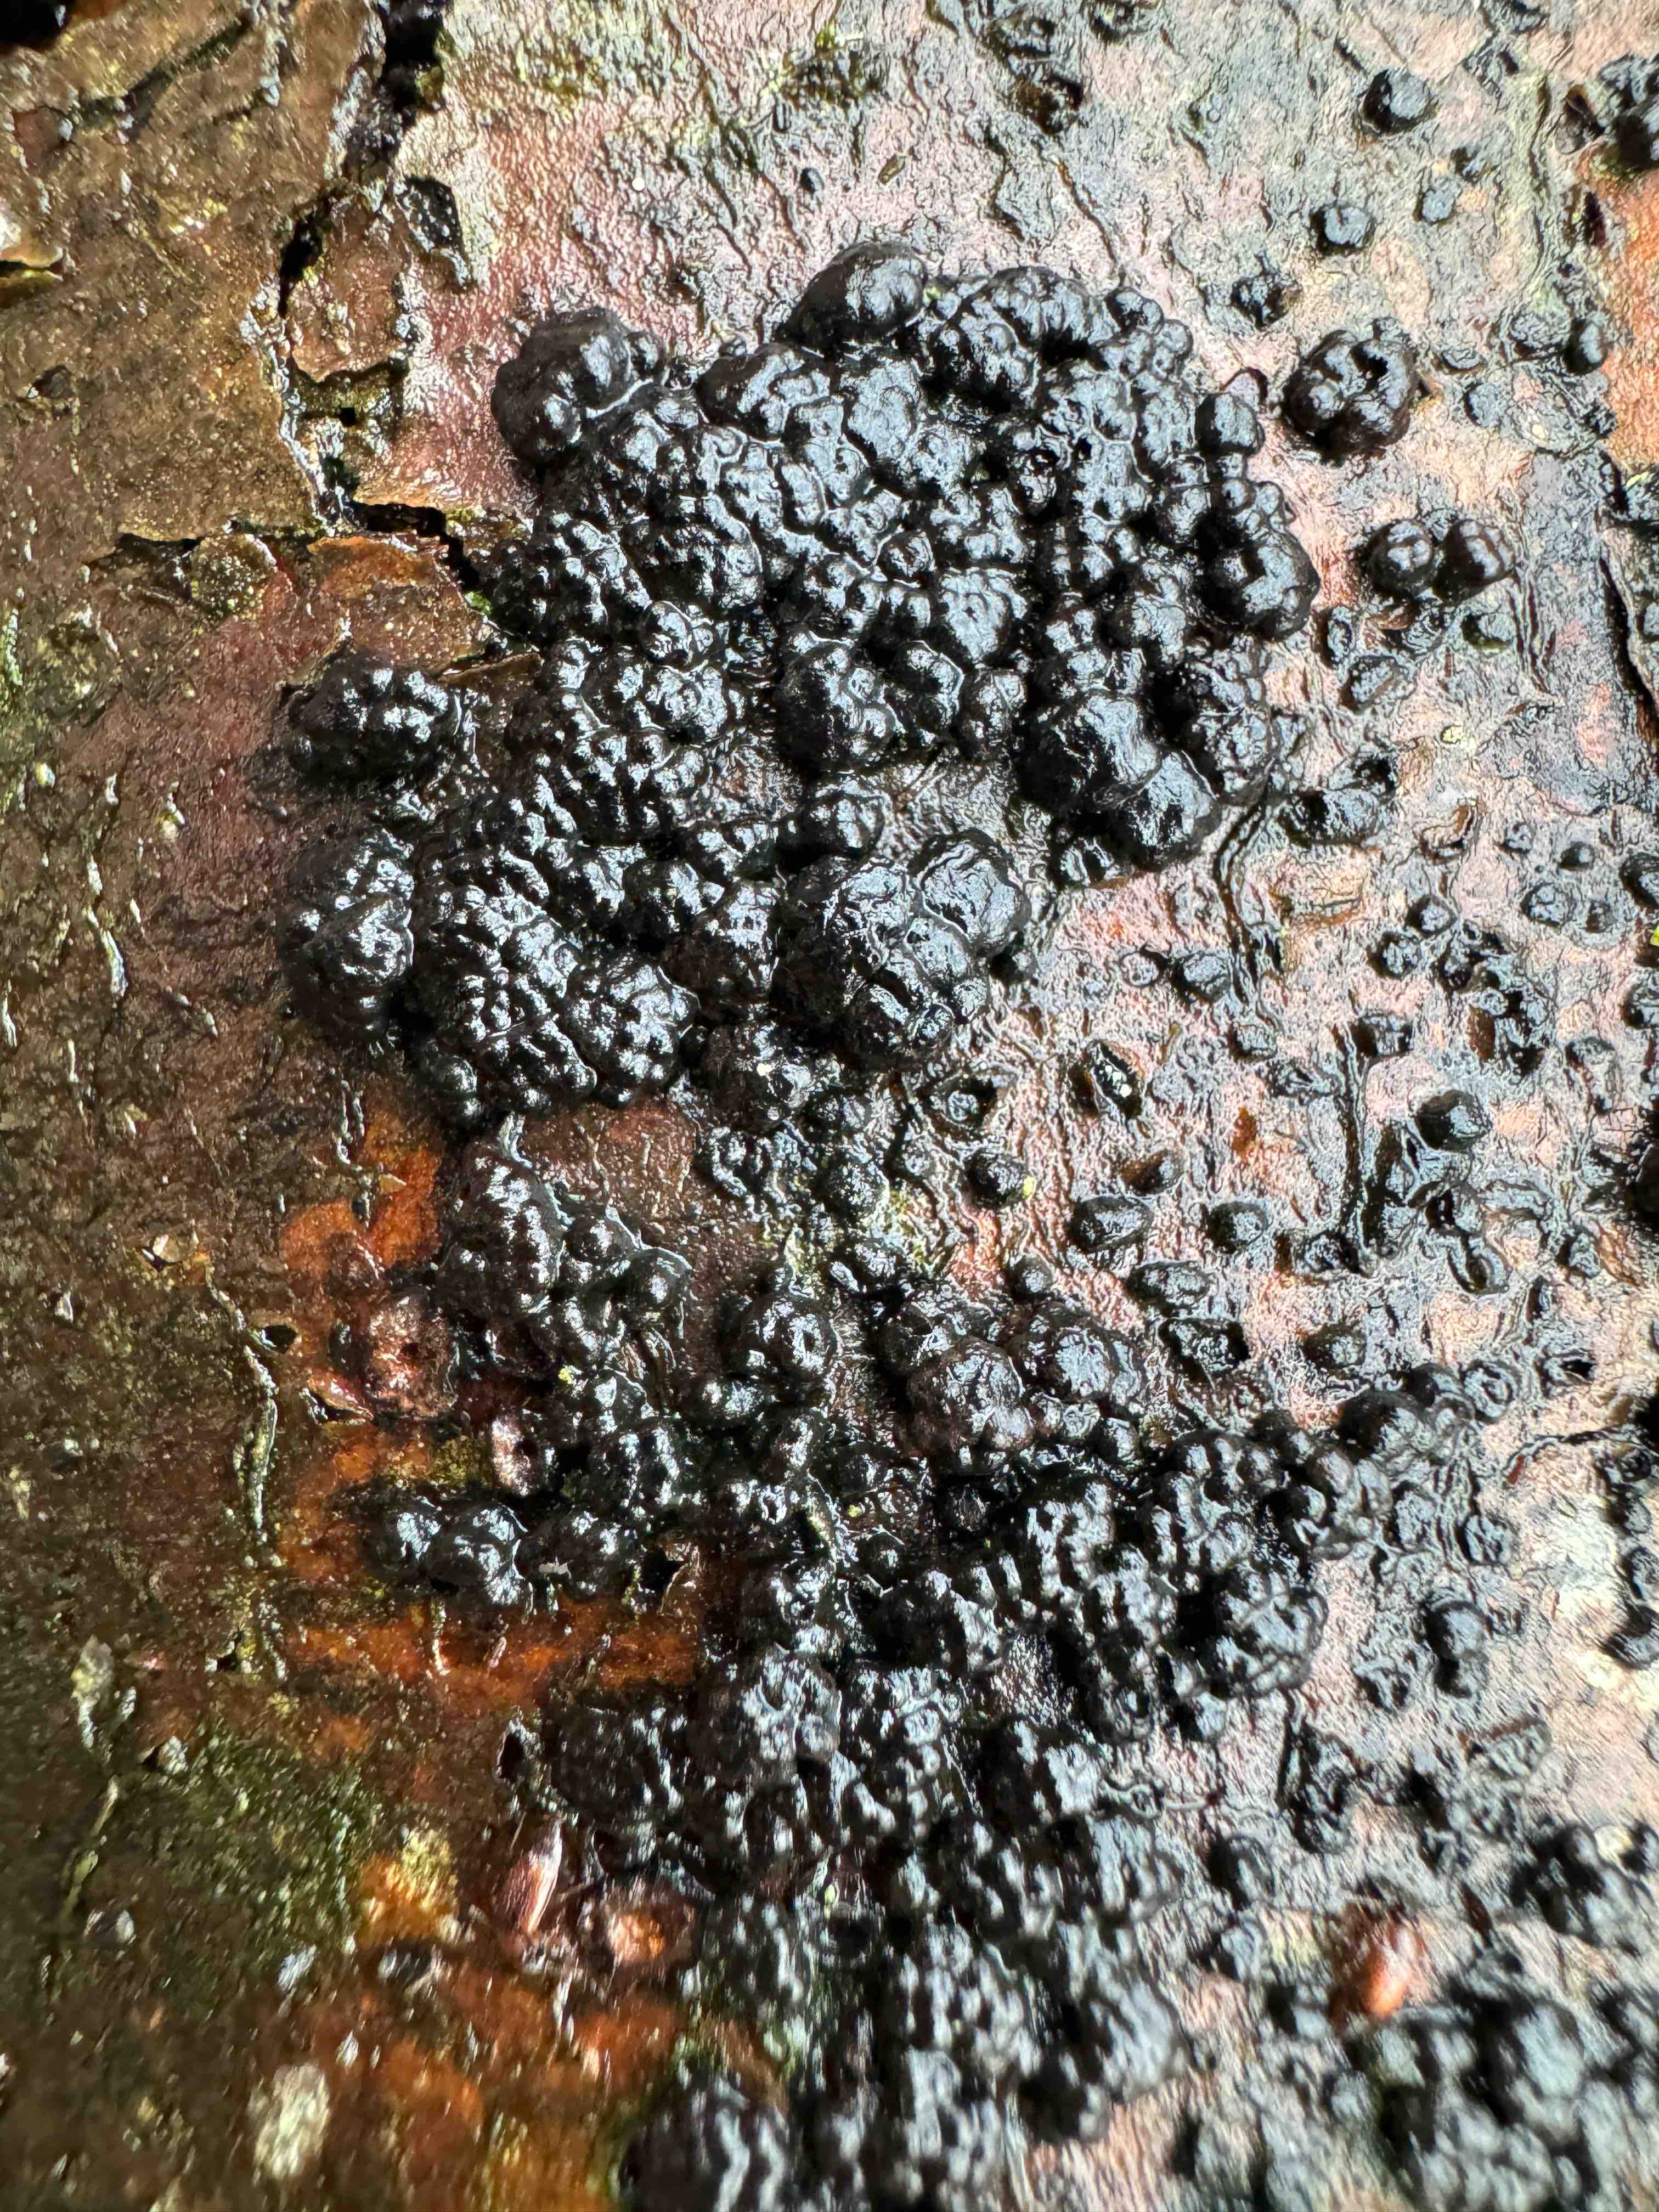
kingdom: Fungi
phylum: Ascomycota
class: Sordariomycetes
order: Xylariales
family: Hypoxylaceae
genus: Jackrogersella
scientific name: Jackrogersella cohaerens
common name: sammenflydende kulbær
